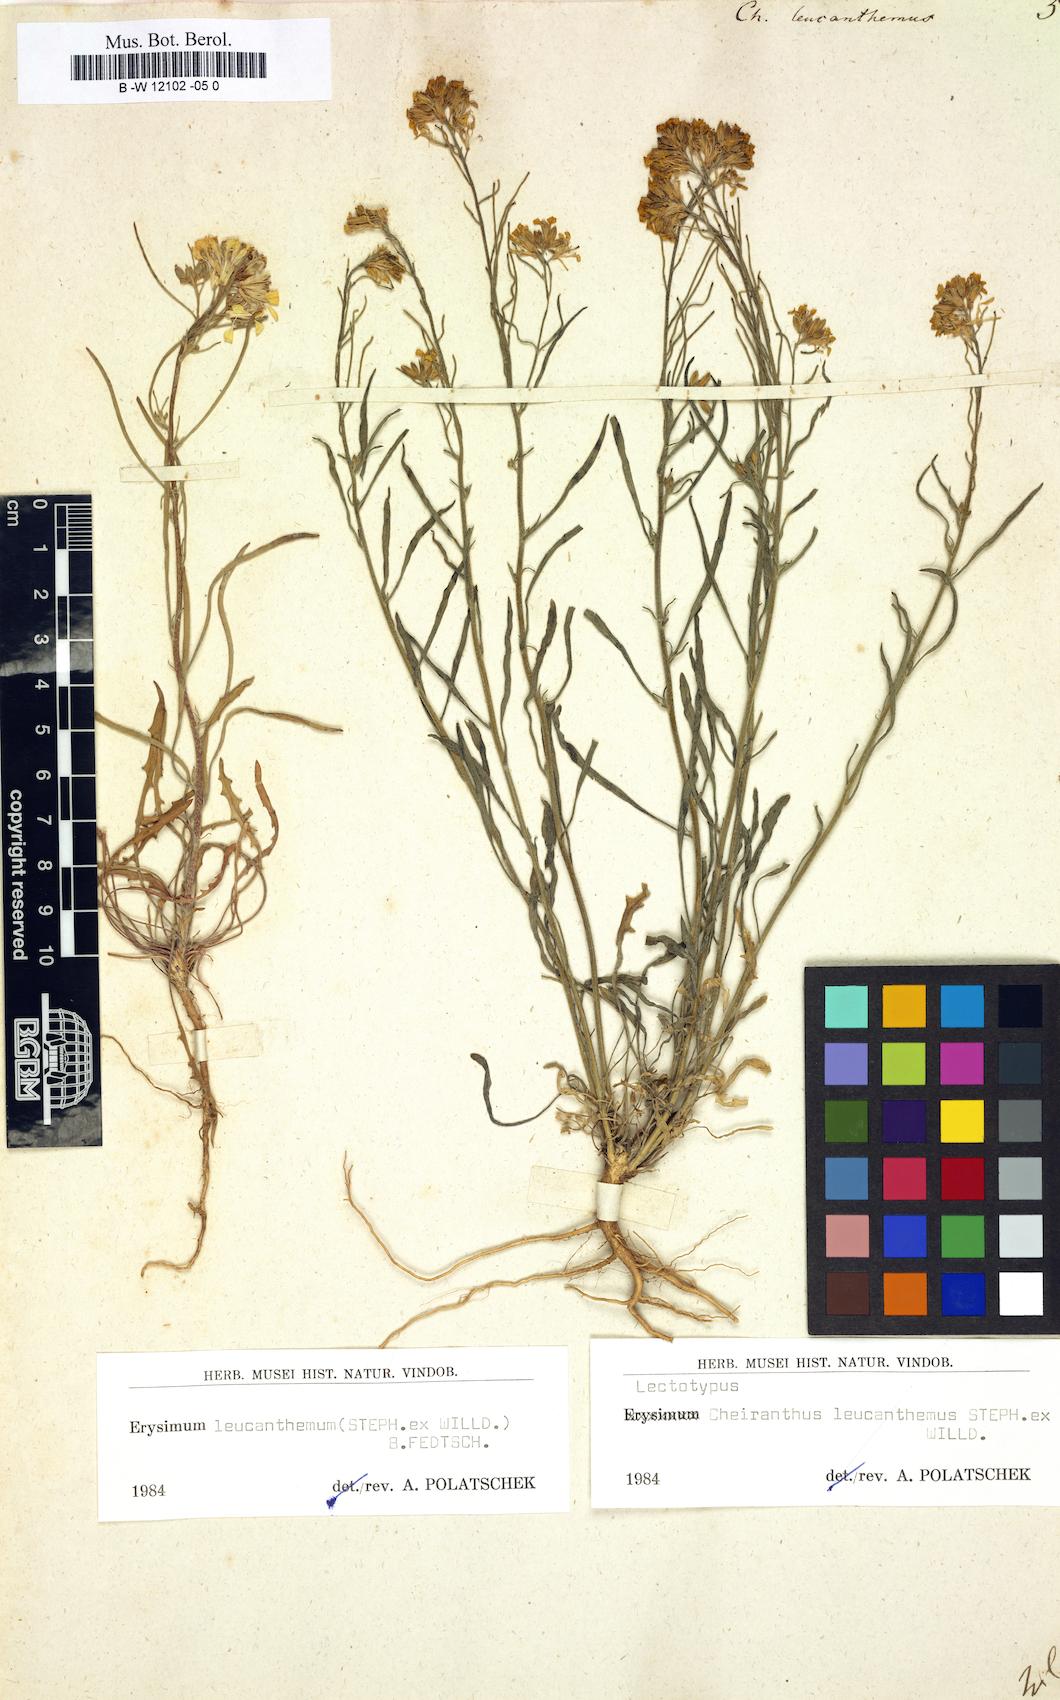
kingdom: Plantae
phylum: Tracheophyta
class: Magnoliopsida
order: Brassicales
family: Brassicaceae
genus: Erysimum
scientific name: Erysimum leucanthemum
